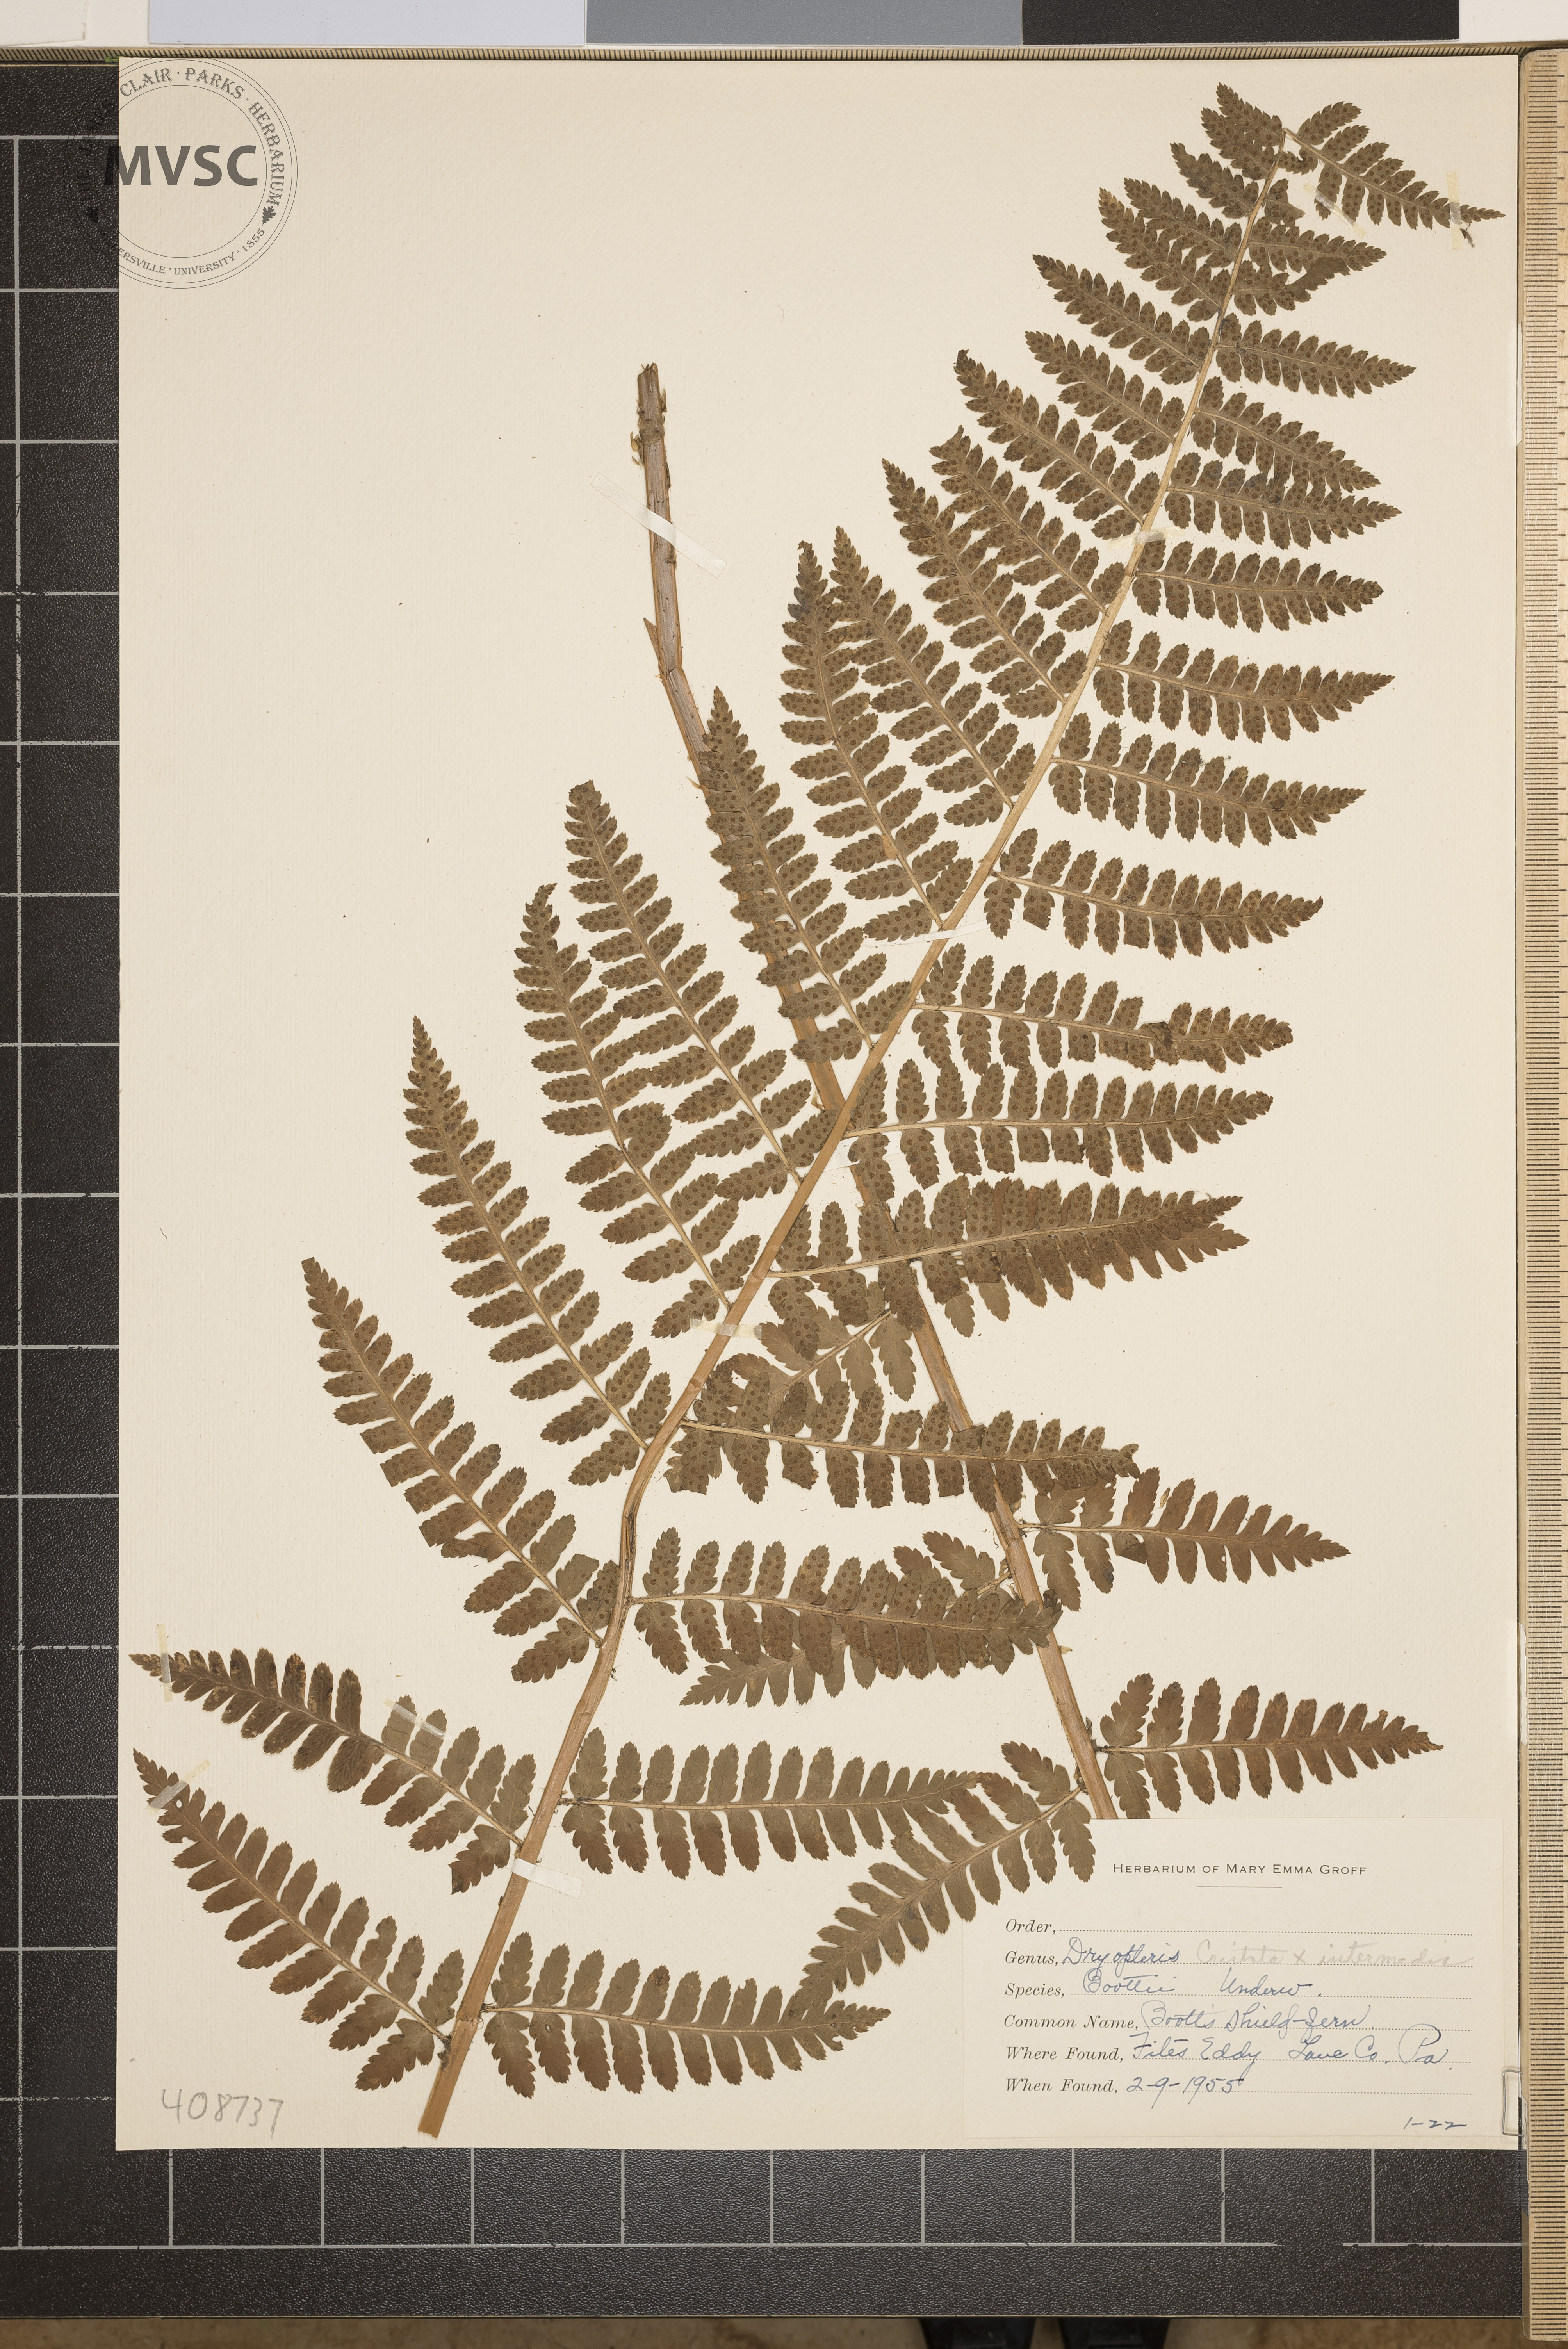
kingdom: Plantae
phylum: Tracheophyta
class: Polypodiopsida
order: Polypodiales
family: Dryopteridaceae
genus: Dryopteris
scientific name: Dryopteris boottii
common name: Boott's Shield Fern
